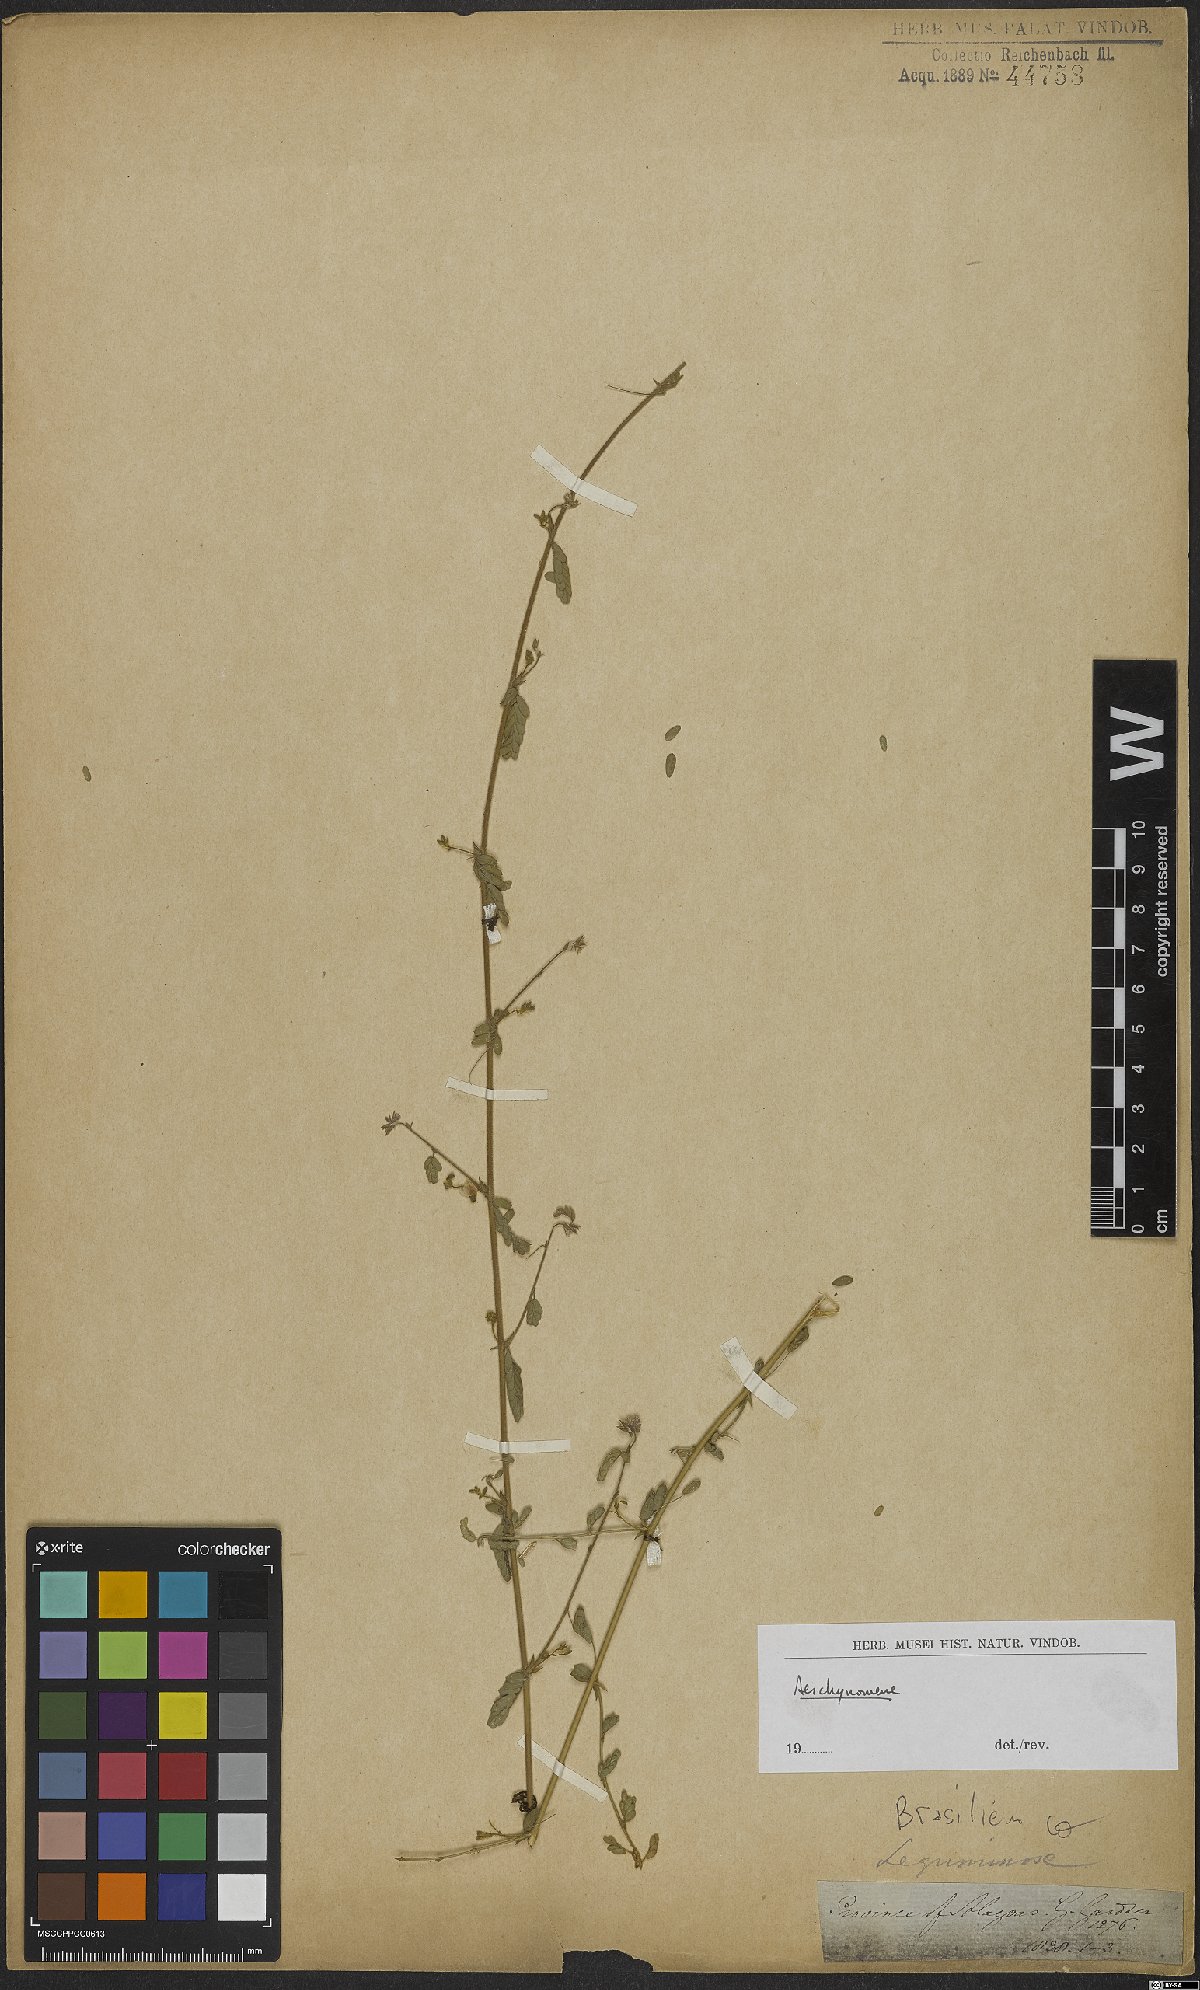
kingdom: Plantae
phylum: Tracheophyta
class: Magnoliopsida
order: Fabales
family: Fabaceae
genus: Aeschynomene
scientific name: Aeschynomene
